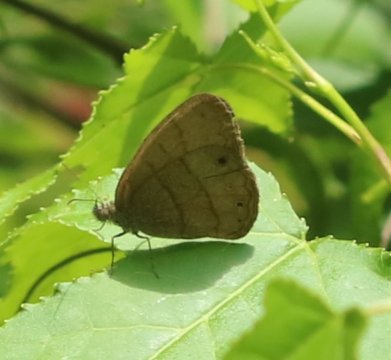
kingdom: Animalia
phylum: Arthropoda
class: Insecta
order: Lepidoptera
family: Nymphalidae
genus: Yphthimoides
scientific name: Yphthimoides renata
